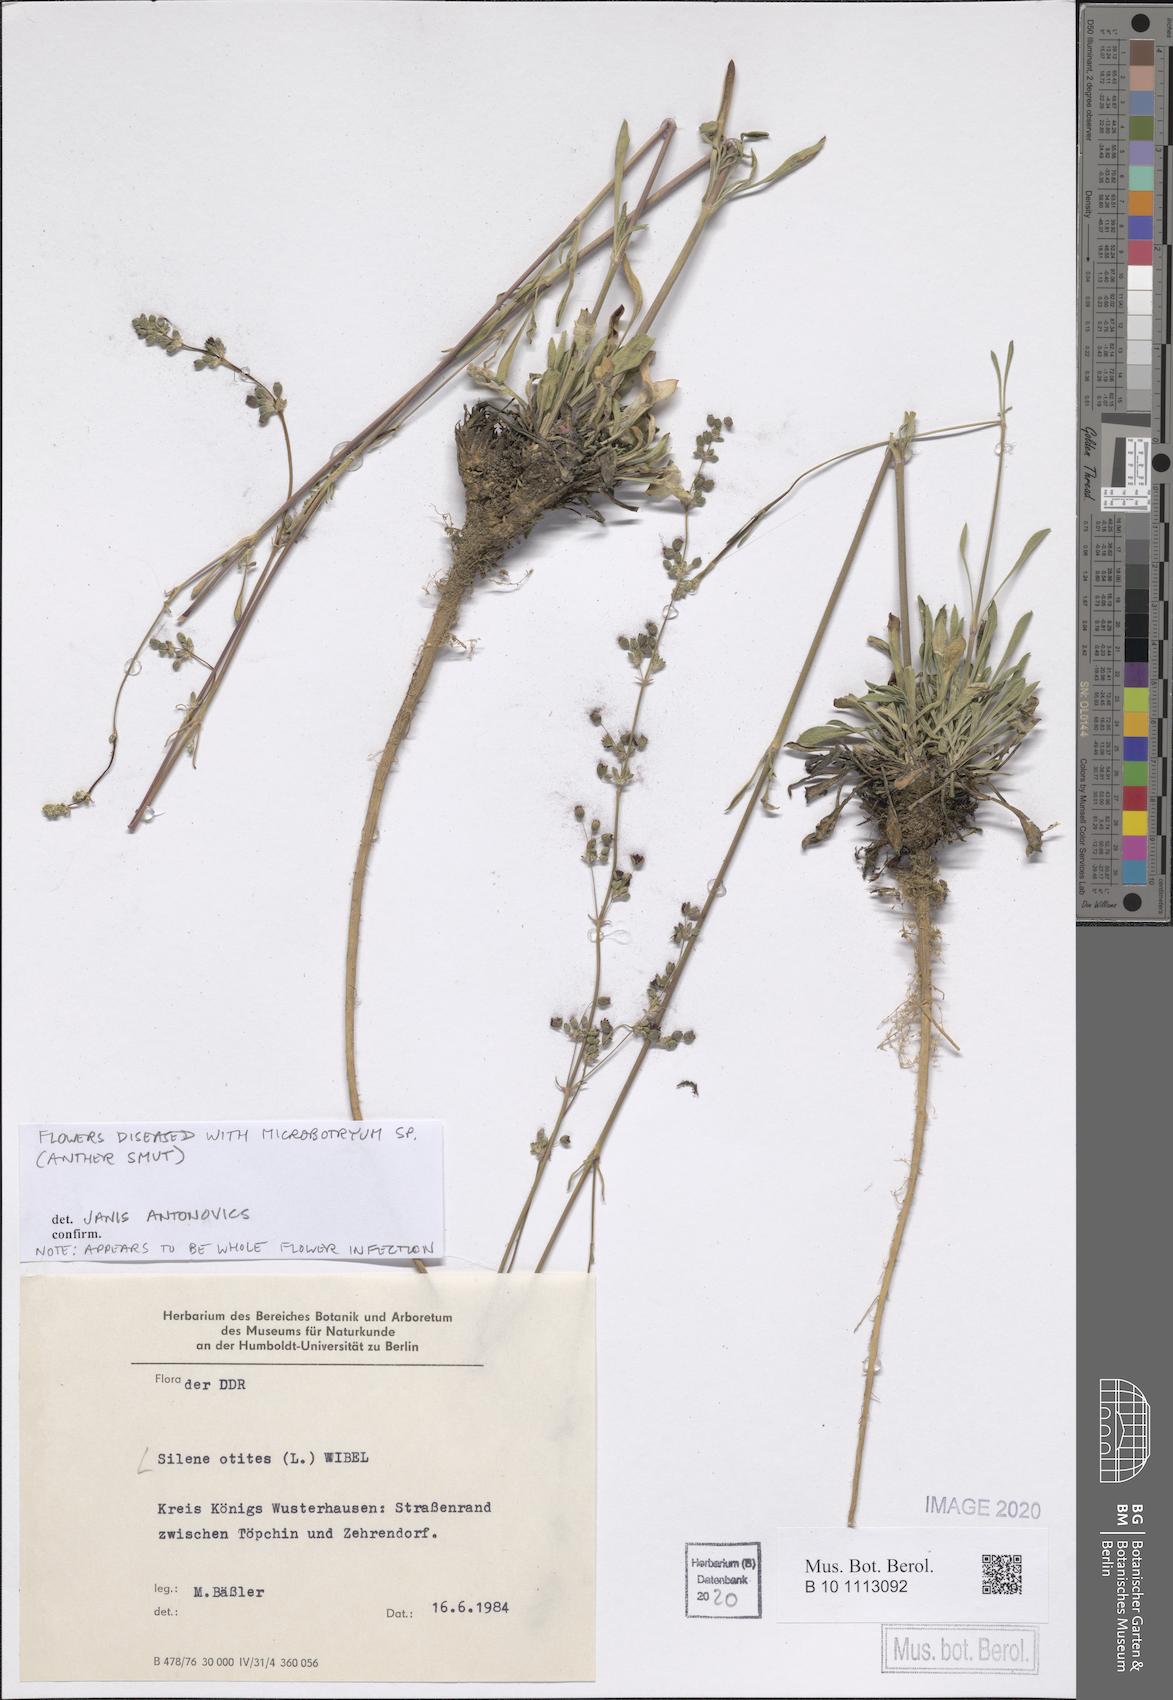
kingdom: Plantae
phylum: Tracheophyta
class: Magnoliopsida
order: Caryophyllales
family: Caryophyllaceae
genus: Silene
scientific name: Silene otites
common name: Spanish catchfly
